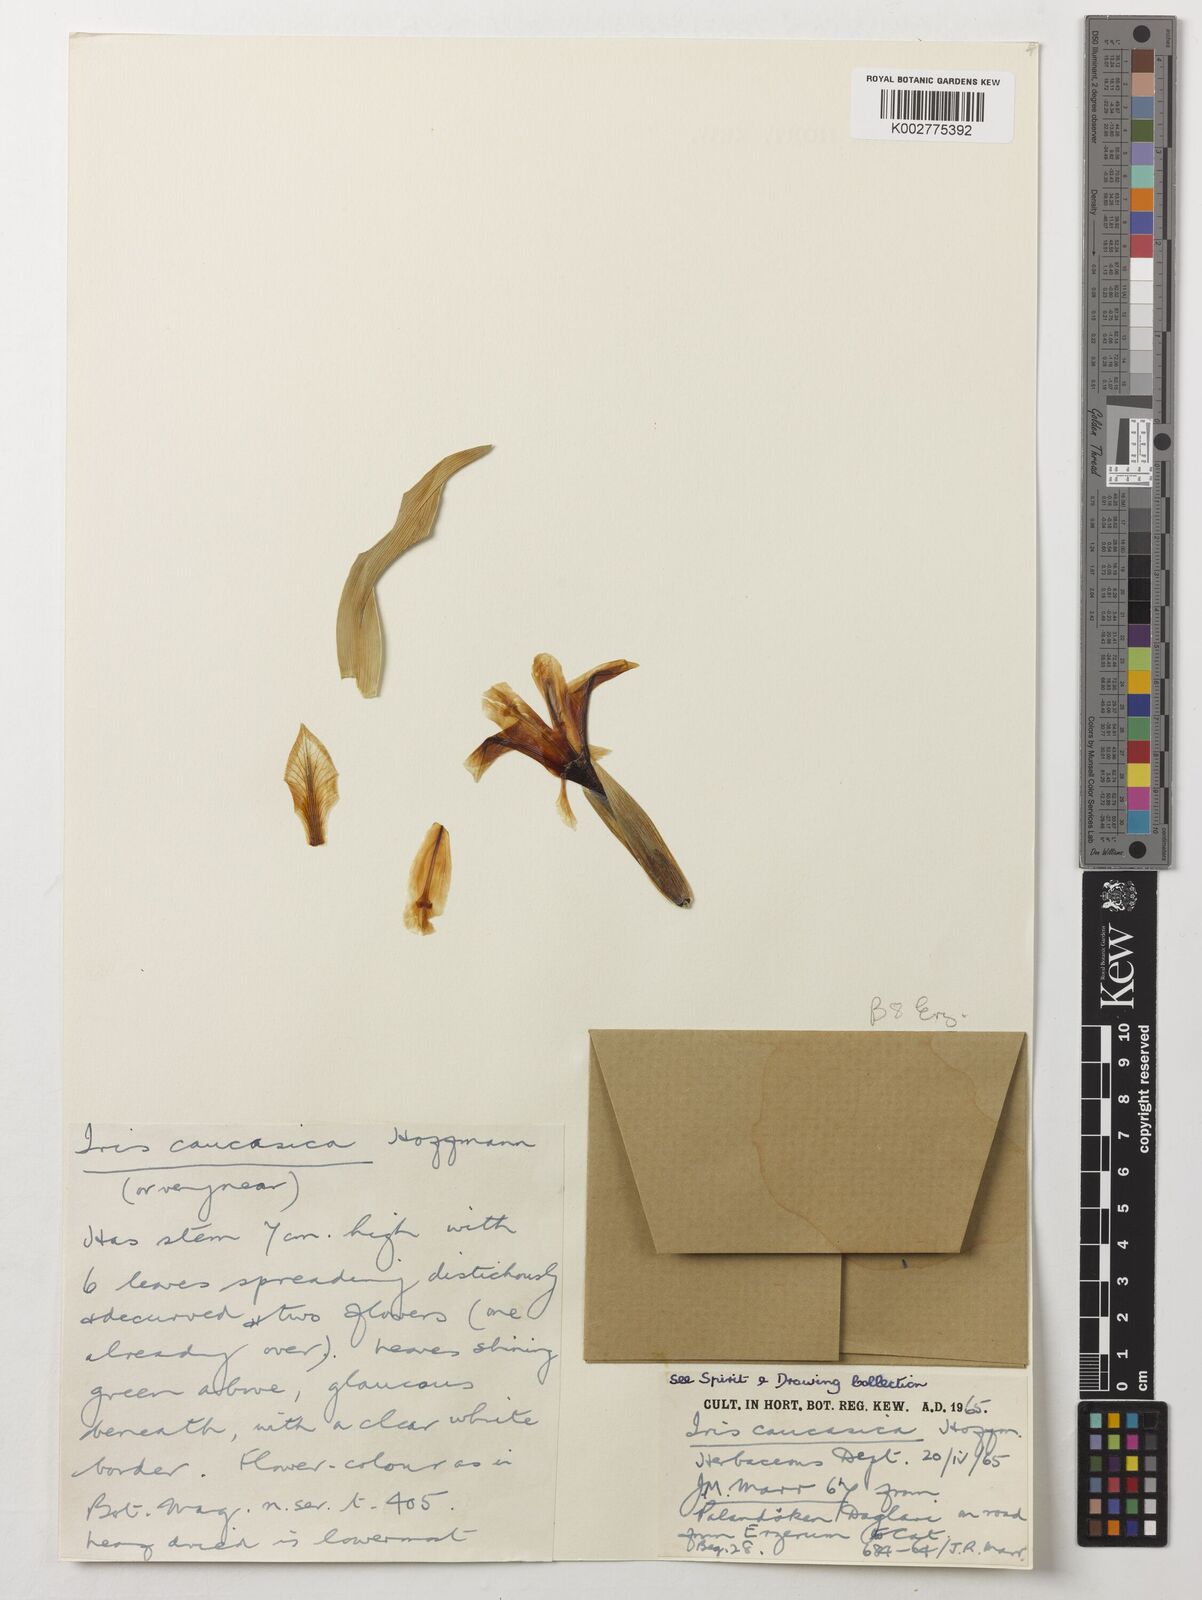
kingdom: Plantae
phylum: Tracheophyta
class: Liliopsida
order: Asparagales
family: Iridaceae
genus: Iris
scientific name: Iris caucasica
